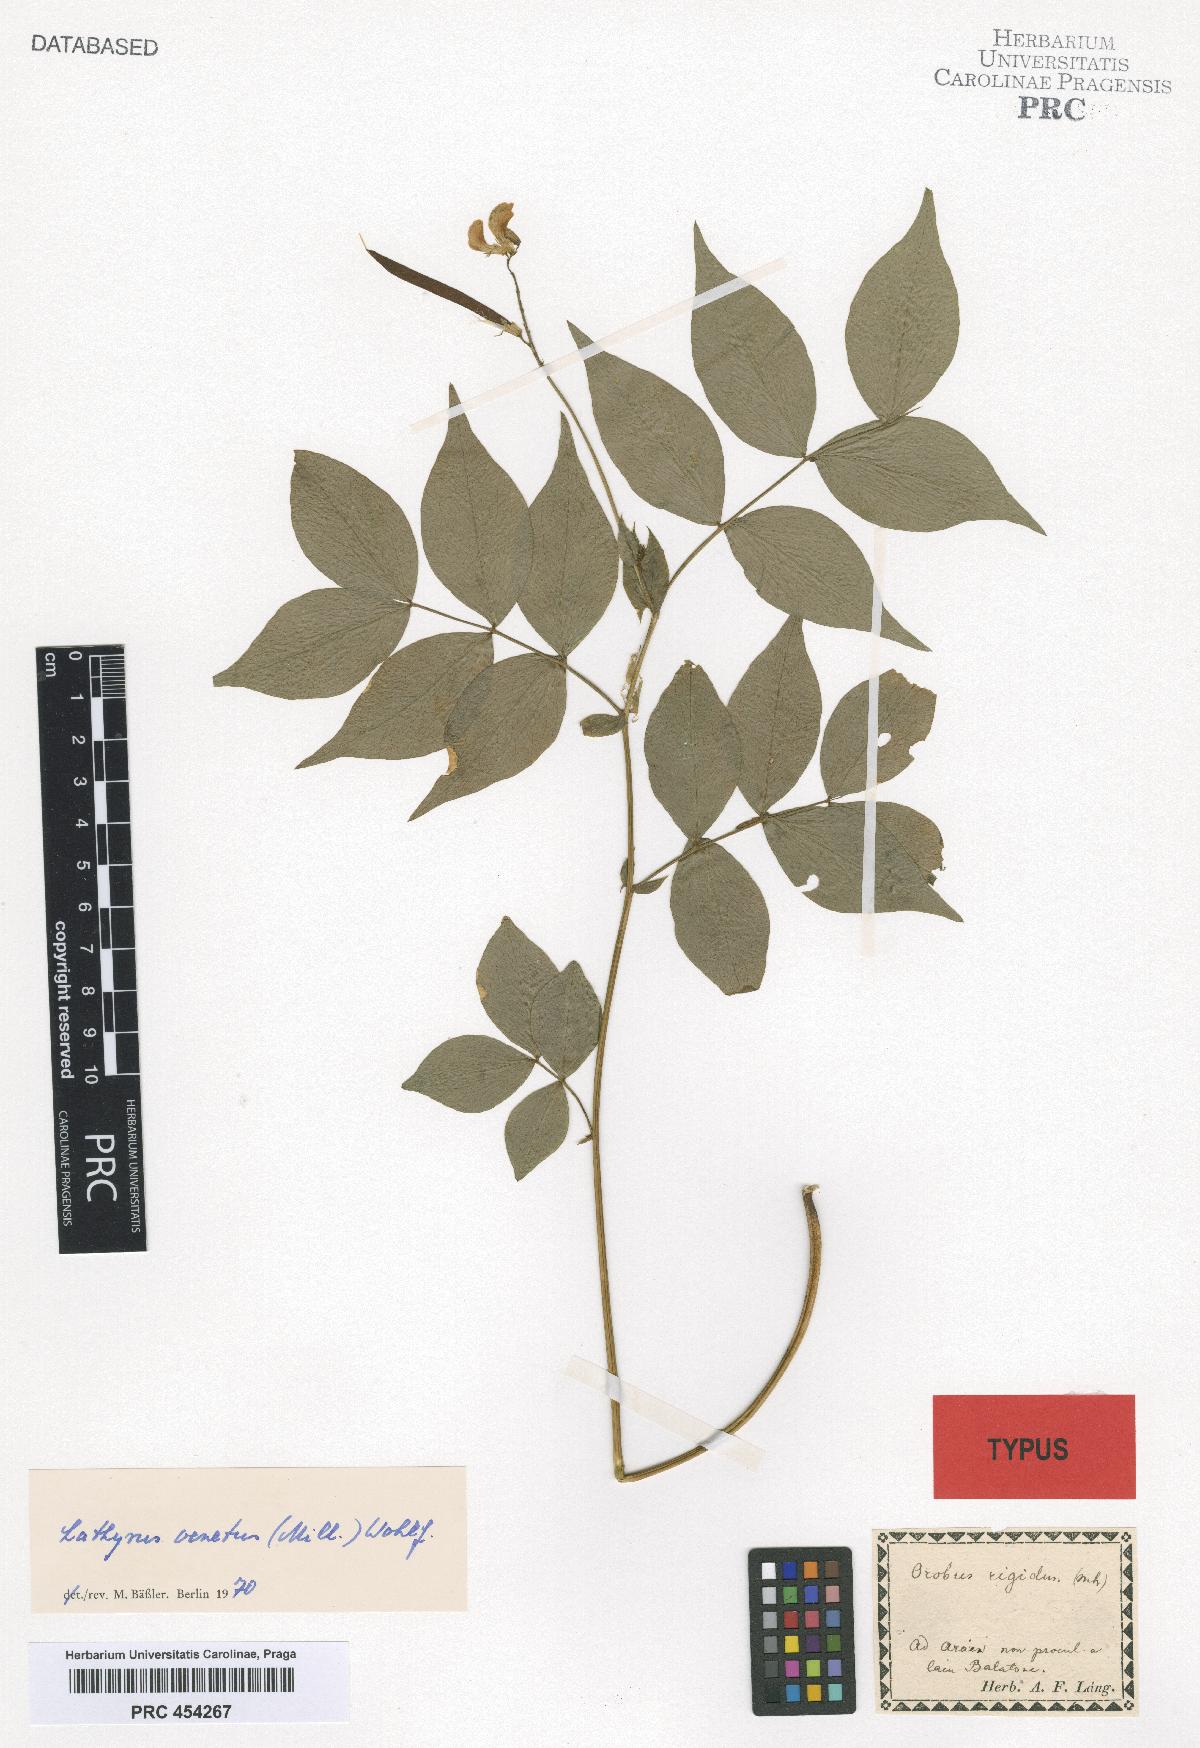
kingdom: Plantae
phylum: Tracheophyta
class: Magnoliopsida
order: Fabales
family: Fabaceae
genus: Lathyrus
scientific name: Lathyrus venetus
